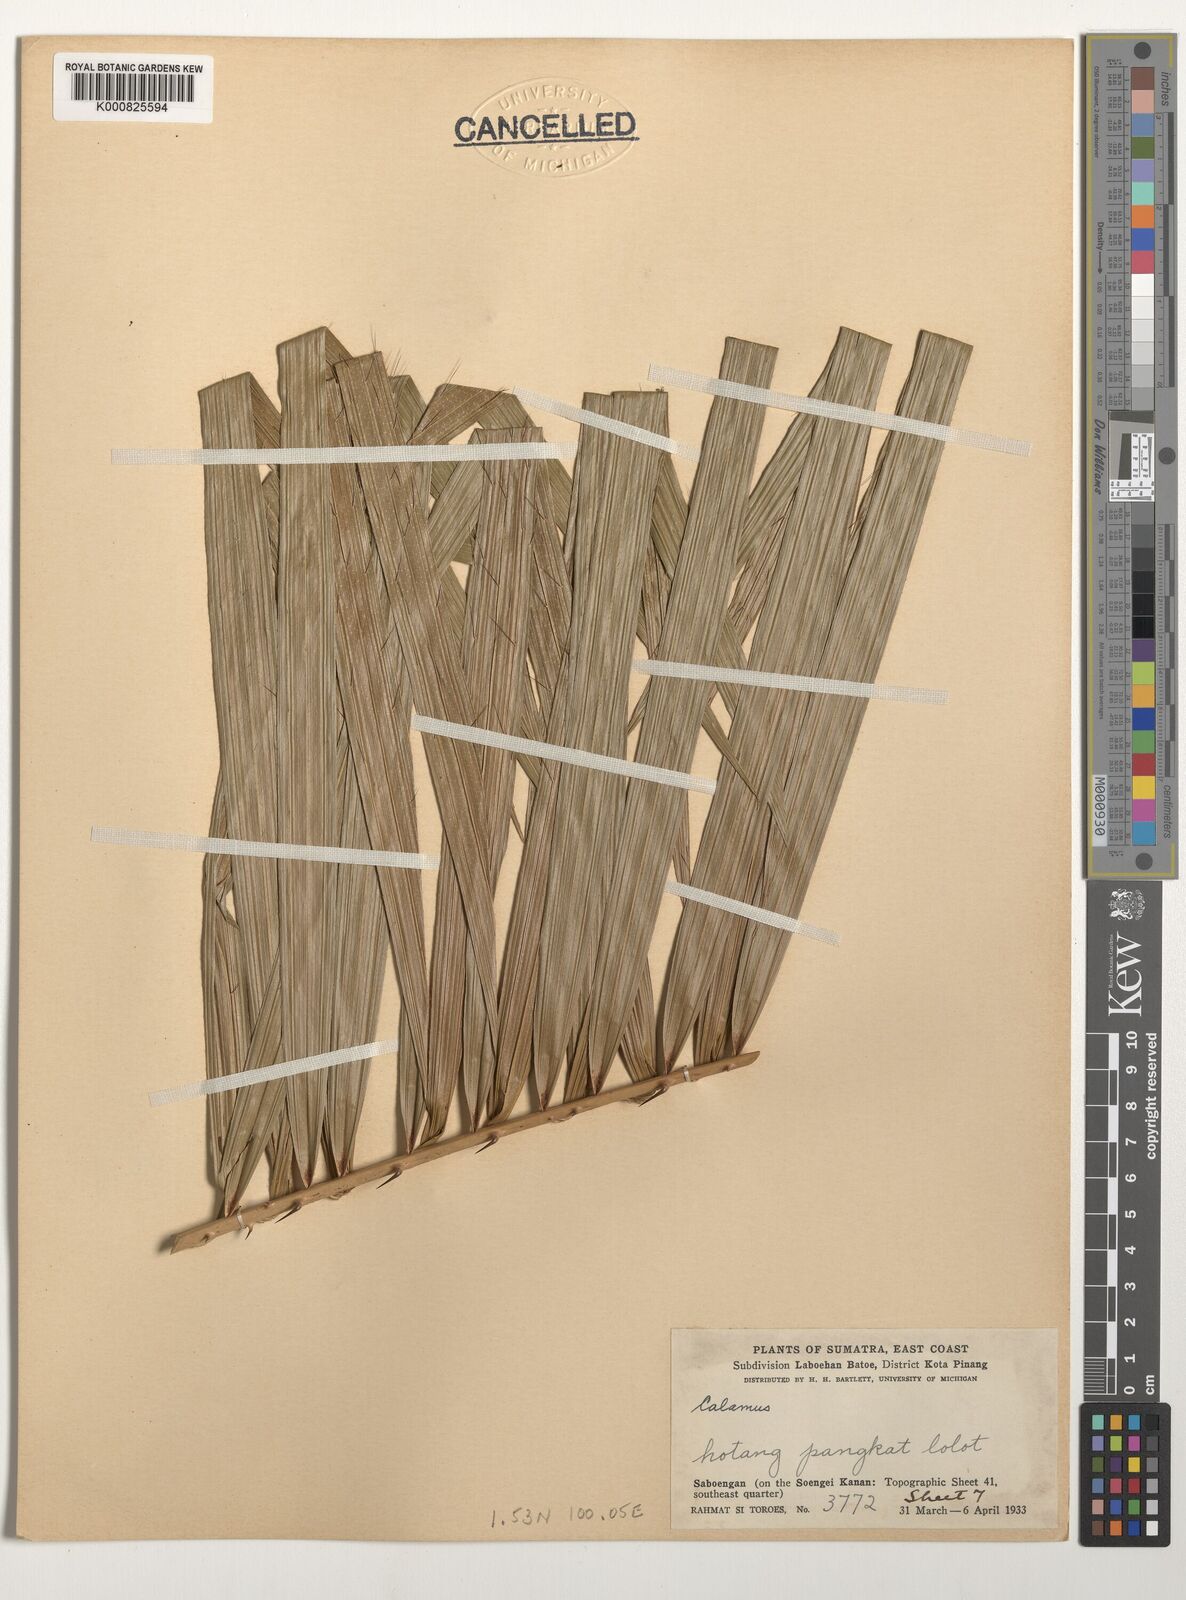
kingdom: Plantae
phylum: Tracheophyta
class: Liliopsida
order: Arecales
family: Arecaceae
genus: Calamus
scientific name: Calamus
